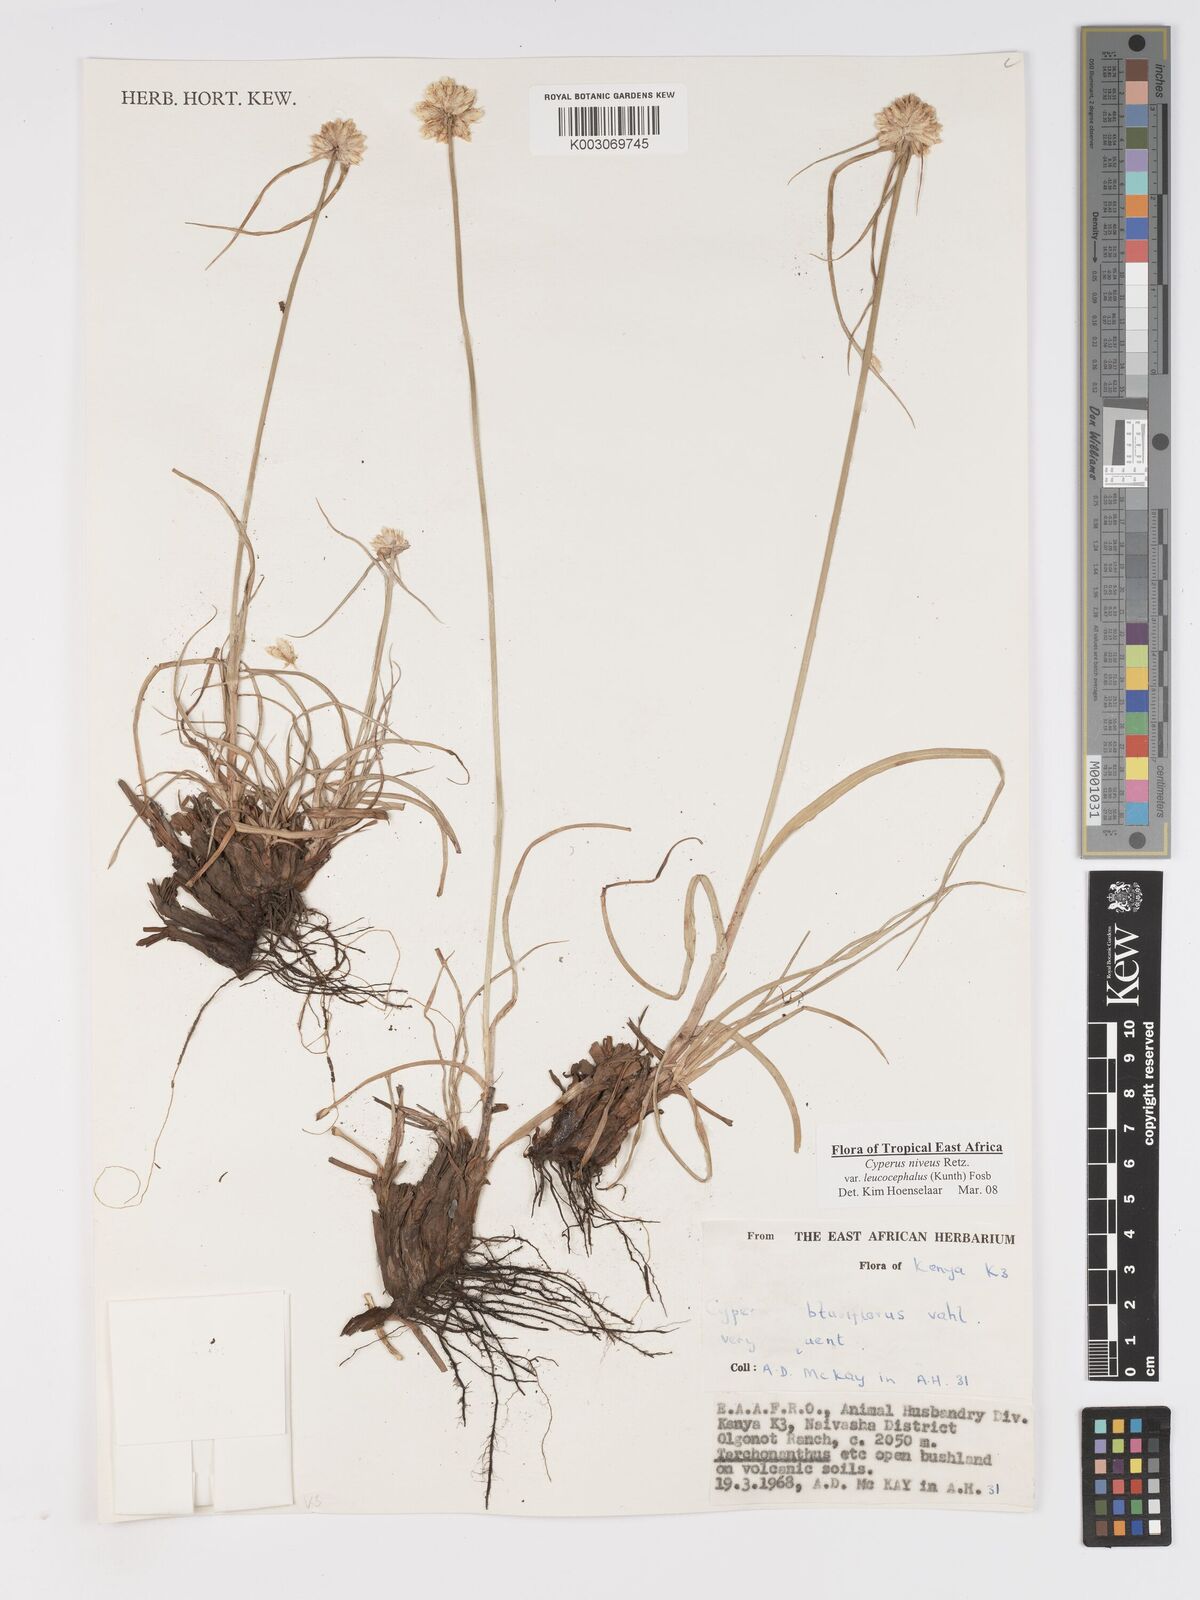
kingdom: Plantae
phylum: Tracheophyta
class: Liliopsida
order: Poales
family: Cyperaceae
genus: Cyperus
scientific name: Cyperus niveus
